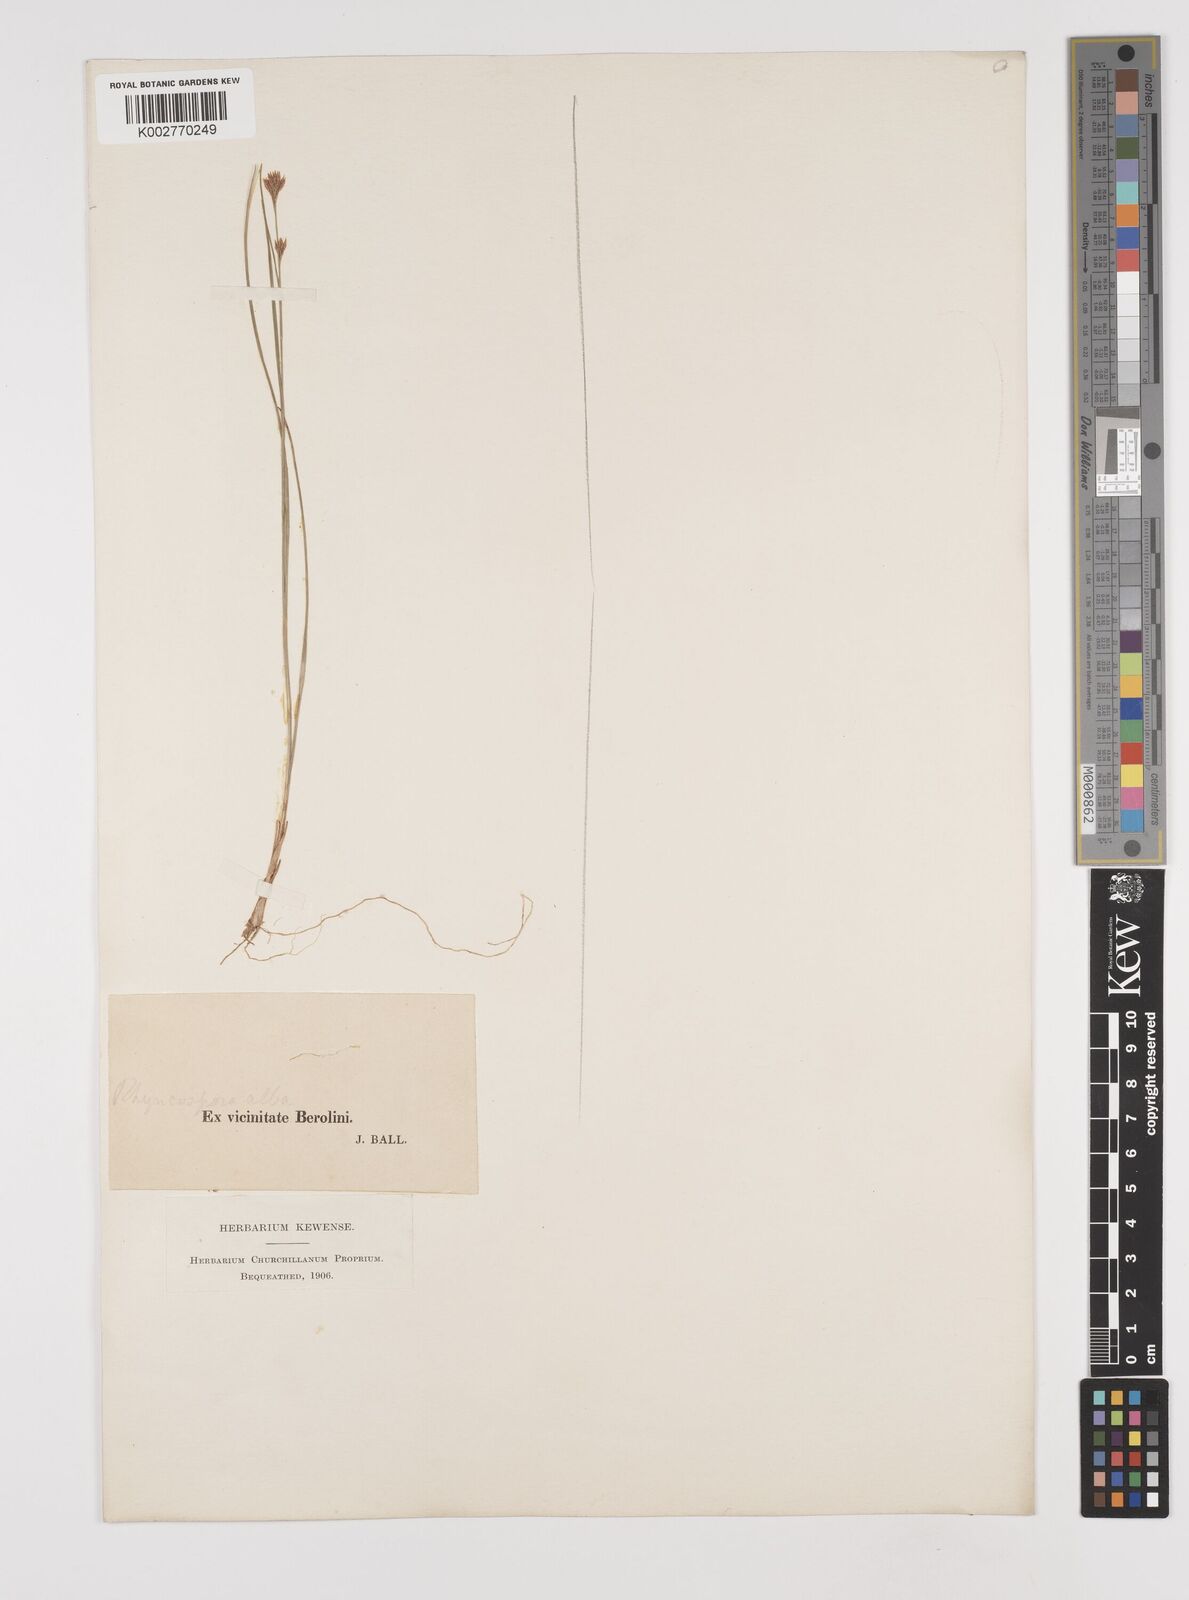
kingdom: Plantae
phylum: Tracheophyta
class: Liliopsida
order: Poales
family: Cyperaceae
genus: Rhynchospora
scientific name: Rhynchospora alba
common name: White beak-sedge
